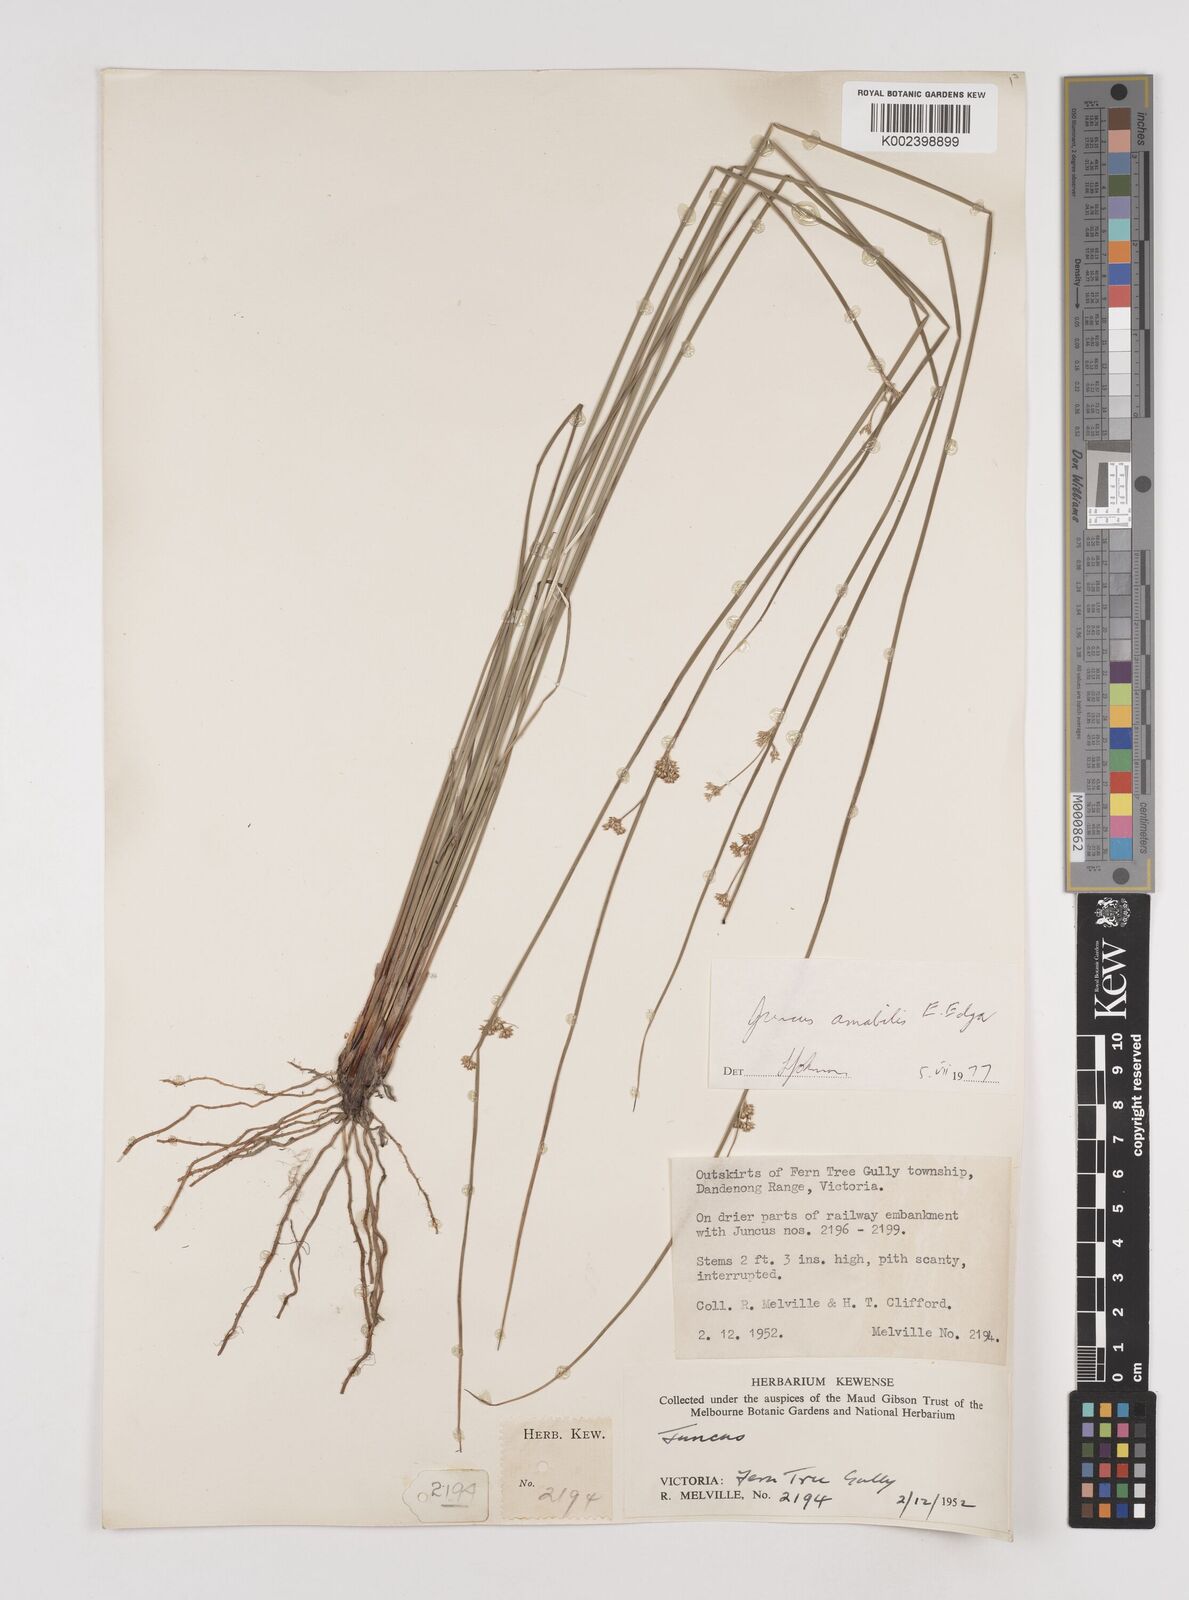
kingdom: Plantae
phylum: Tracheophyta
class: Liliopsida
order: Poales
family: Juncaceae
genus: Juncus
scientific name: Juncus amabilis
